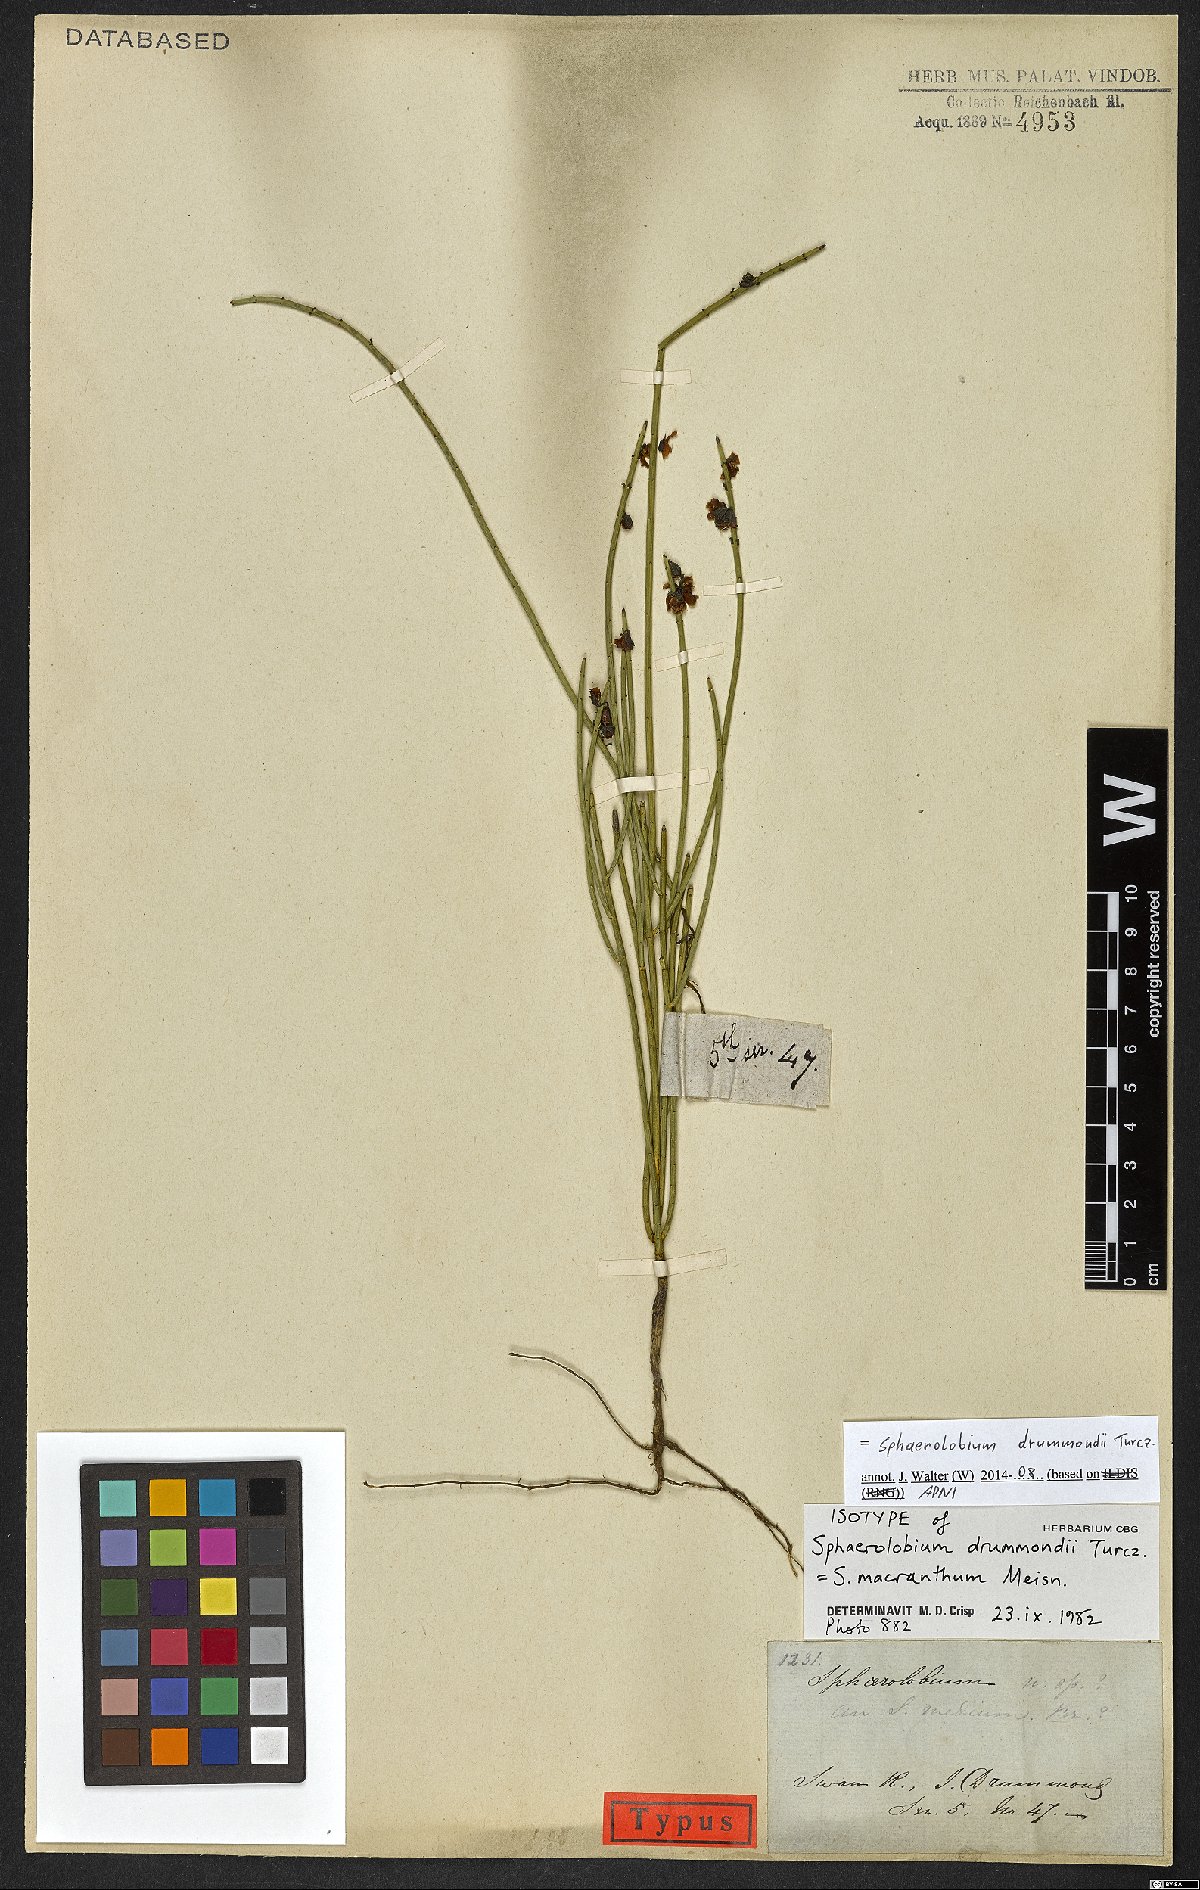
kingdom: Plantae
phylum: Tracheophyta
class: Magnoliopsida
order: Fabales
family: Fabaceae
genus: Sphaerolobium
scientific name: Sphaerolobium drummondii
